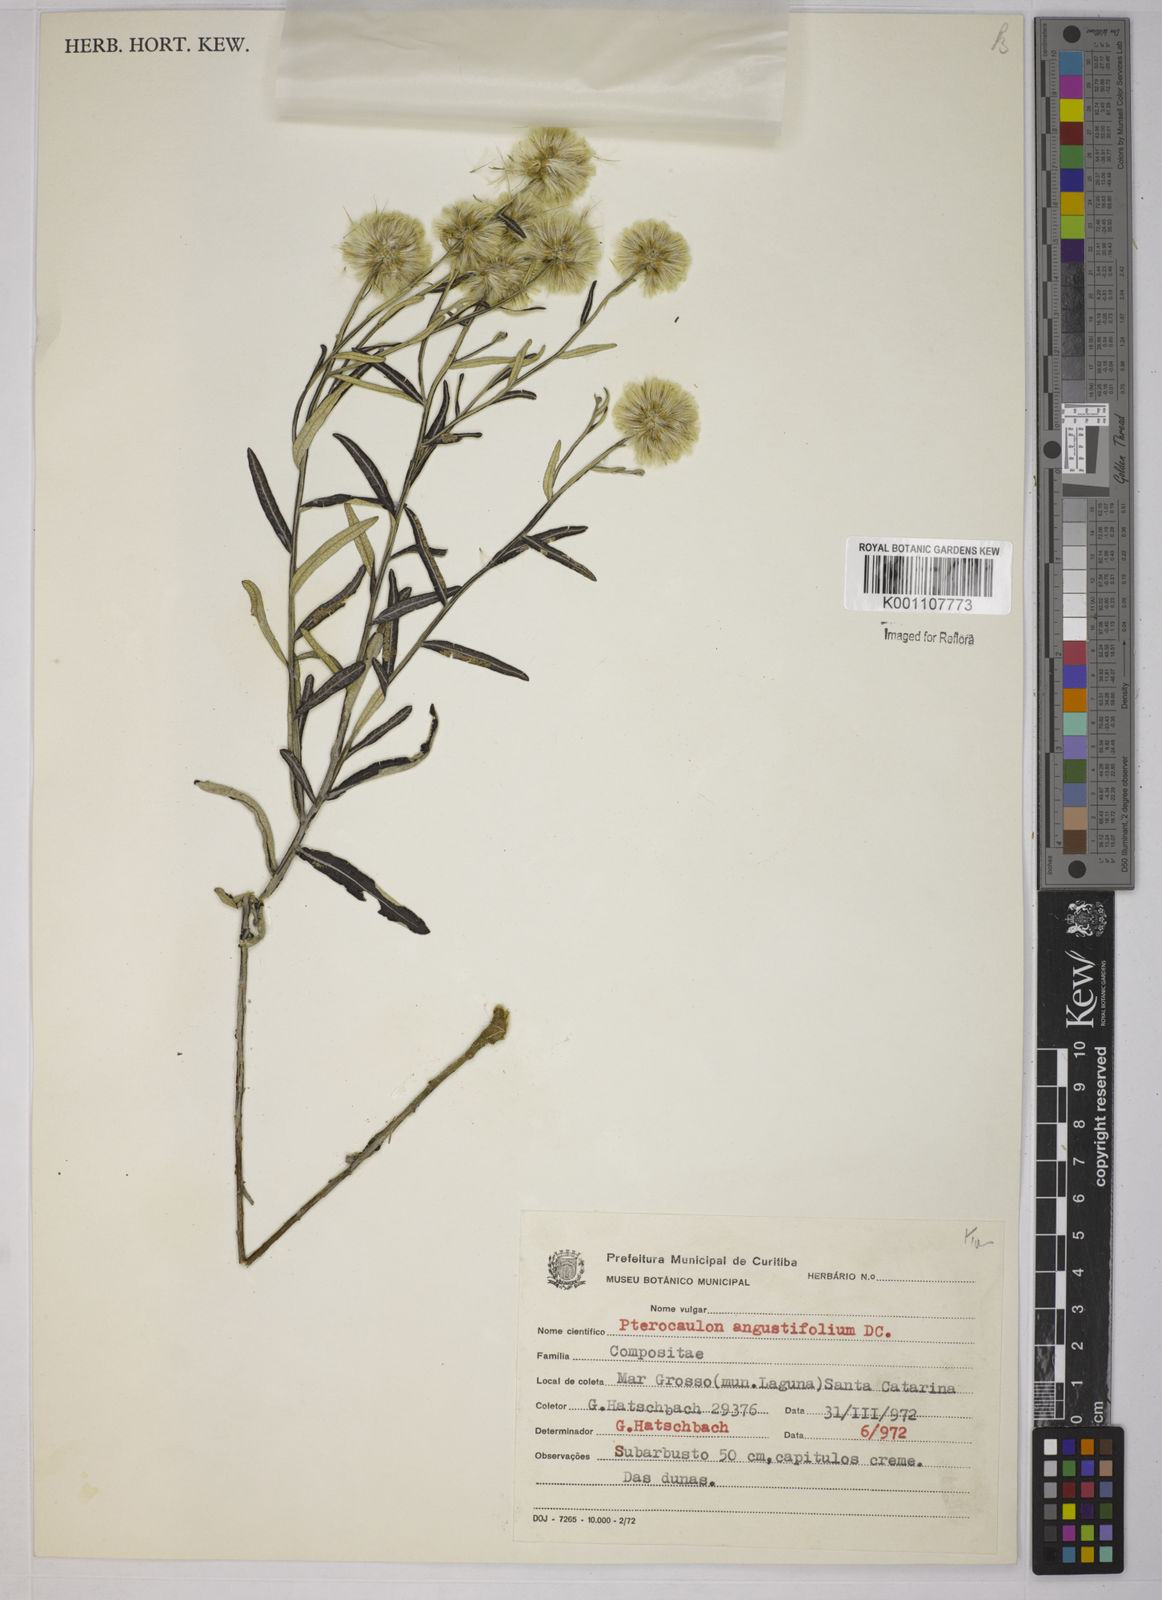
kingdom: Plantae
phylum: Tracheophyta
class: Magnoliopsida
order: Asterales
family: Asteraceae
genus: Pterocaulon
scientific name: Pterocaulon angustifolium
